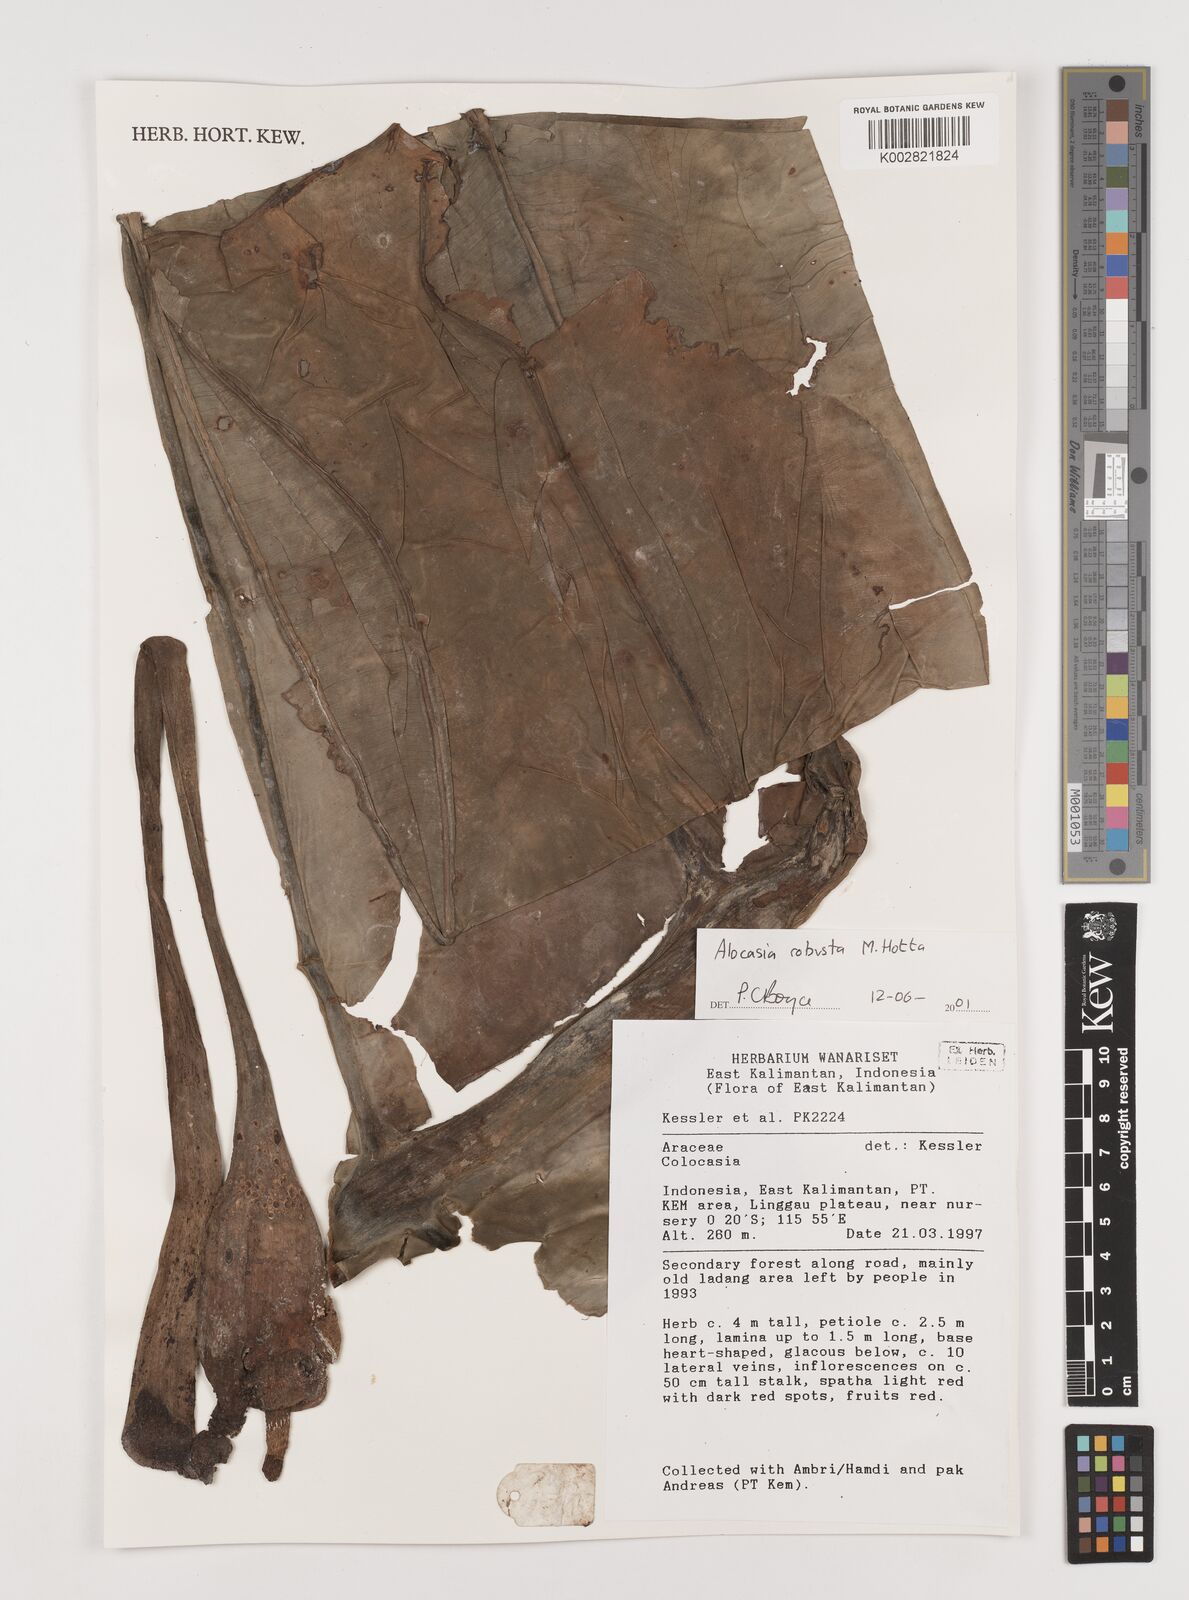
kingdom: Plantae
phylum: Tracheophyta
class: Liliopsida
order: Alismatales
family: Araceae
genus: Alocasia
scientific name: Alocasia robusta
